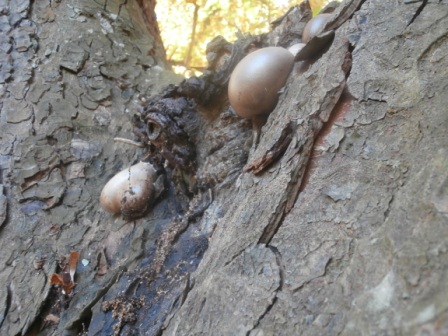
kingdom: Protozoa
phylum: Mycetozoa
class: Myxomycetes
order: Cribrariales
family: Tubiferaceae
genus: Lycogala
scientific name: Lycogala flavofuscum
